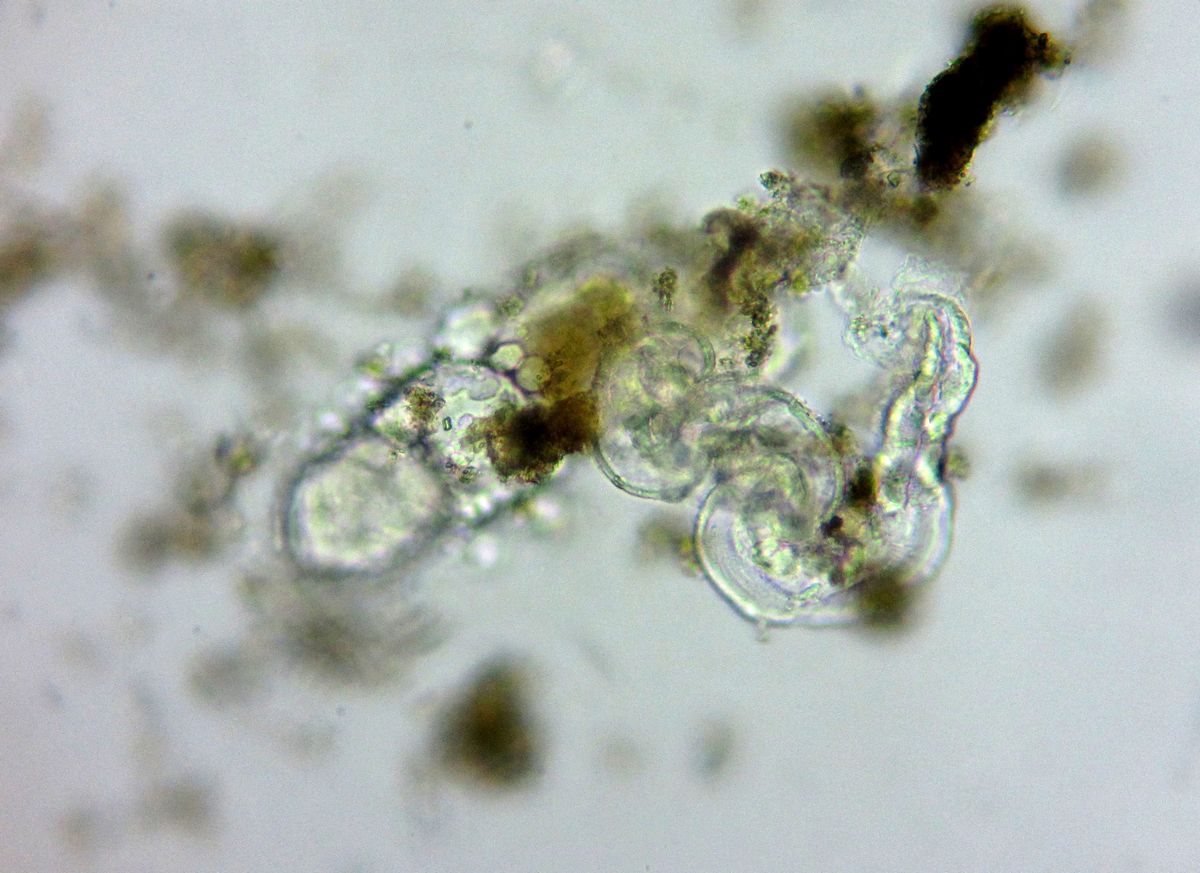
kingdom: Animalia
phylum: Chordata
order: Copelata
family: Fritillariidae
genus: Fritillaria
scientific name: Fritillaria borealis
